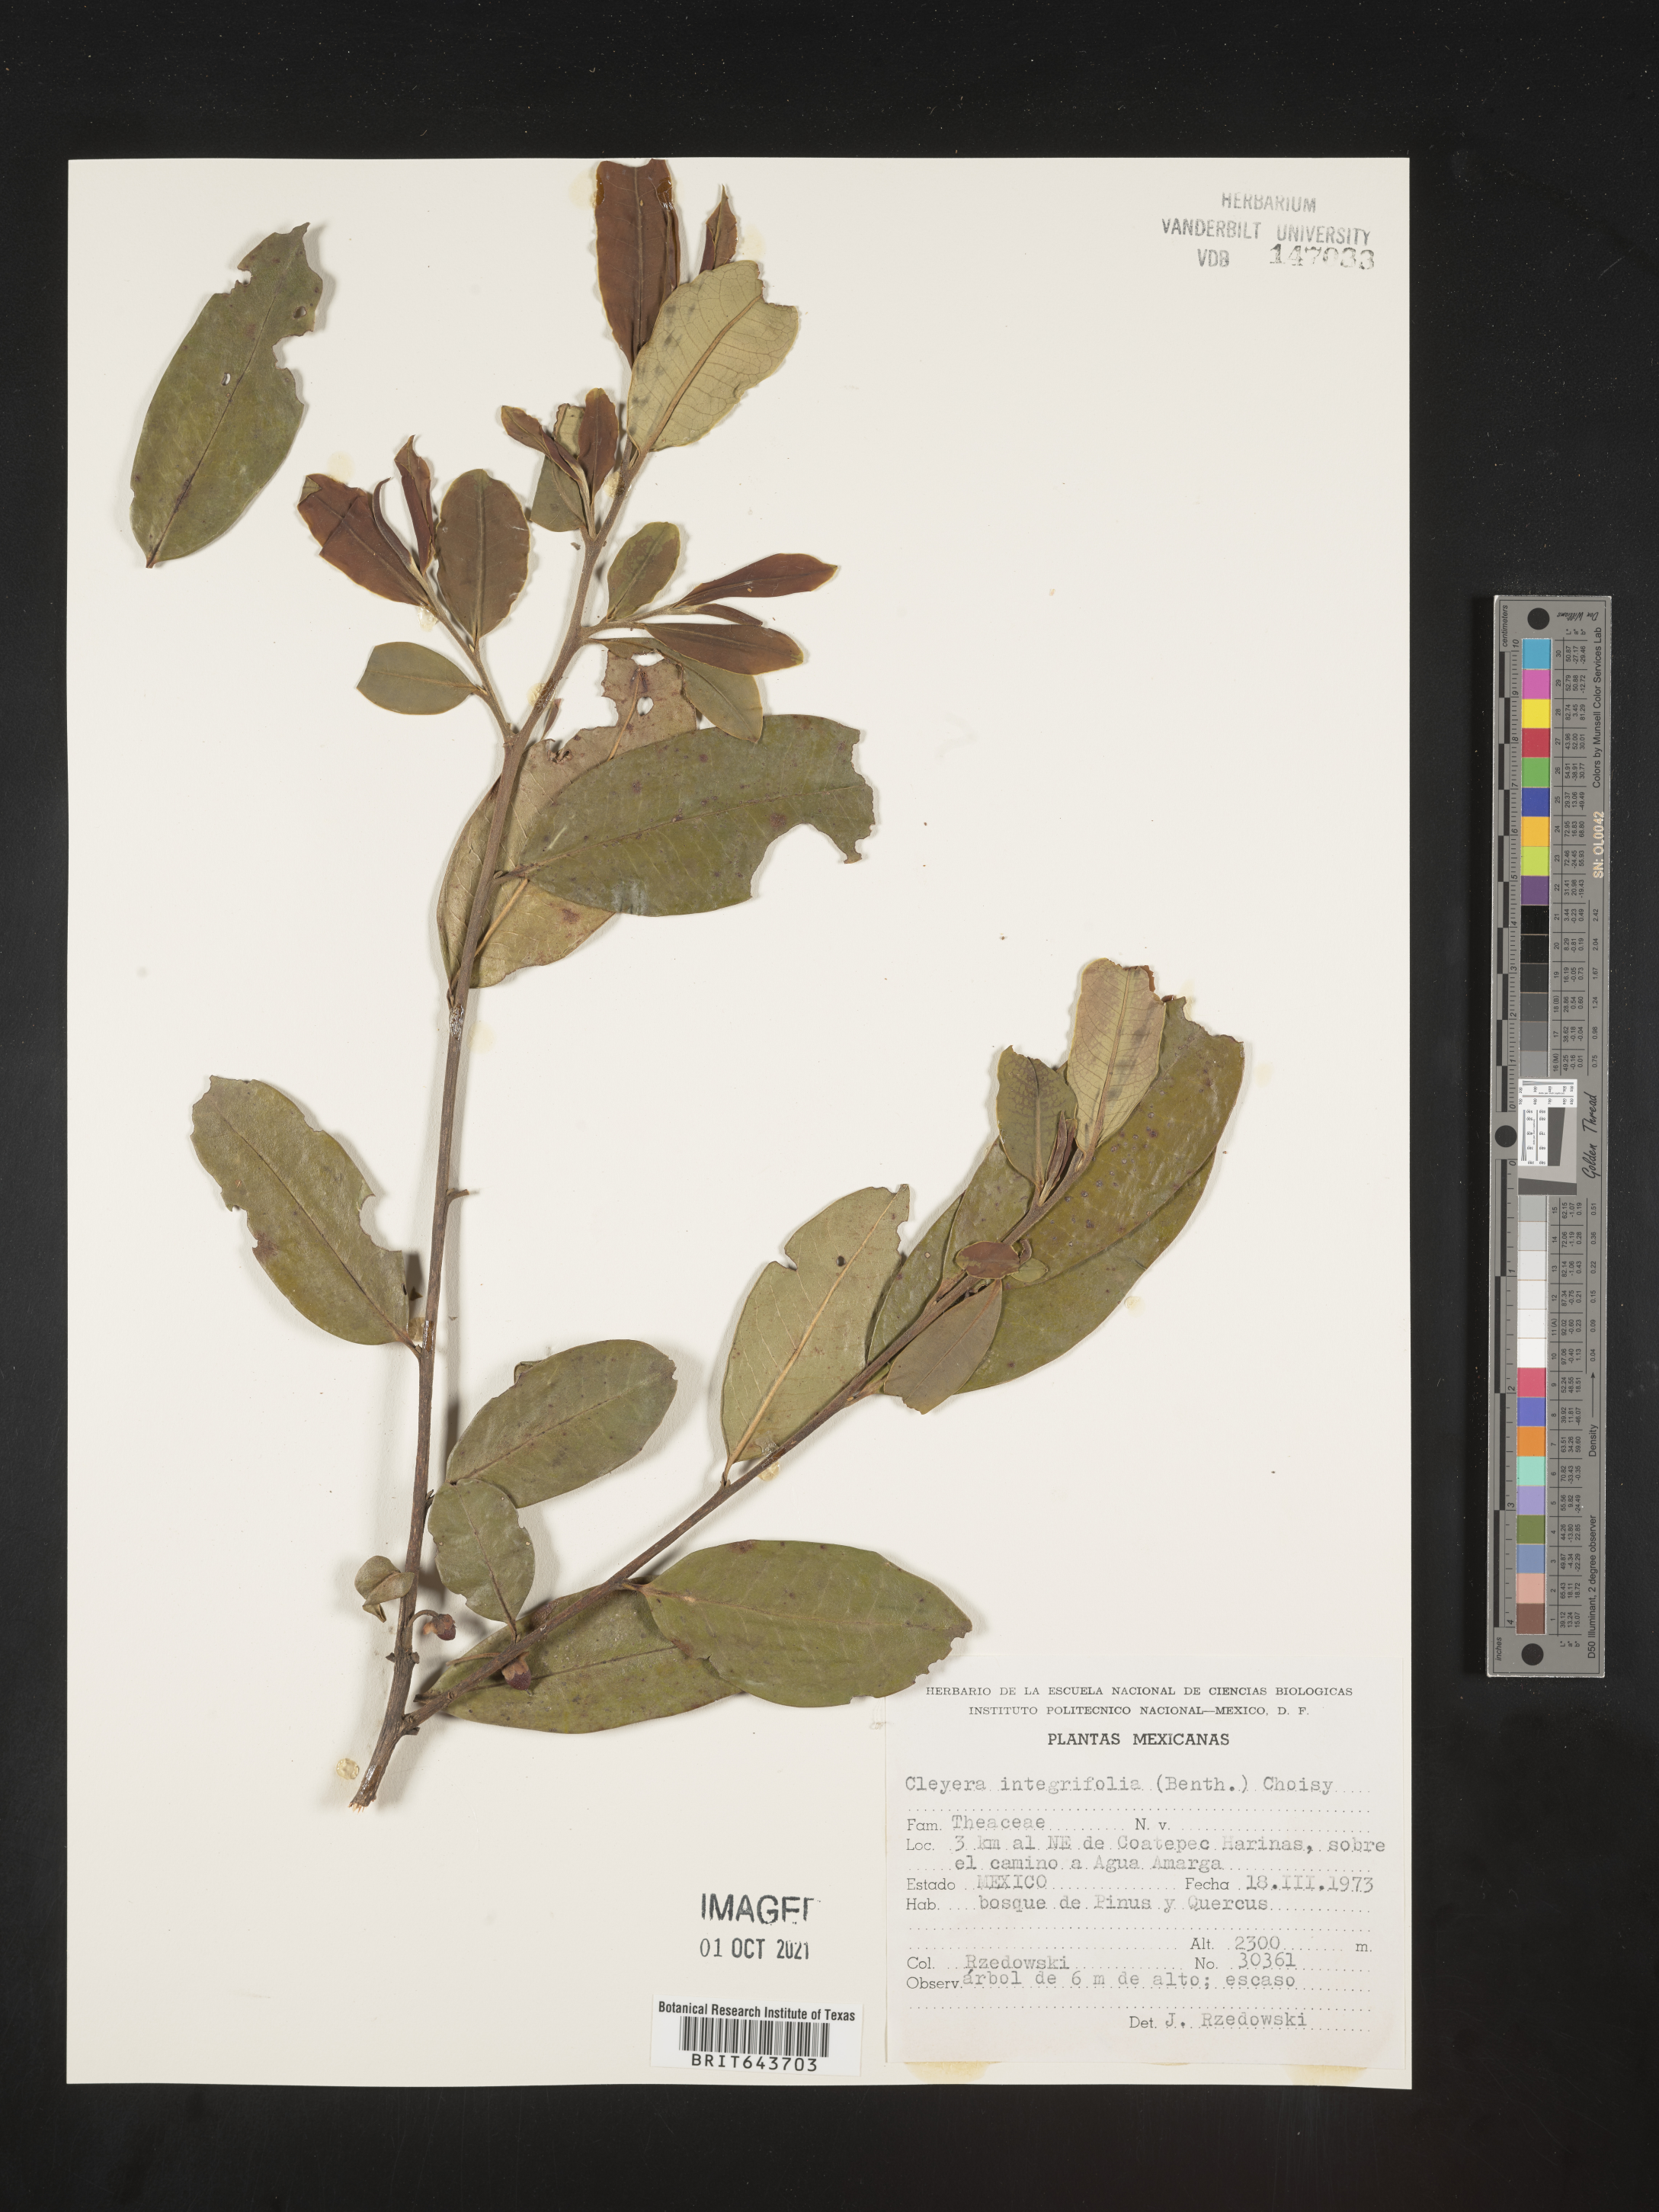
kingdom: Plantae
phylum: Tracheophyta
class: Magnoliopsida
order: Ericales
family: Pentaphylacaceae
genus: Cleyera
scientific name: Cleyera
